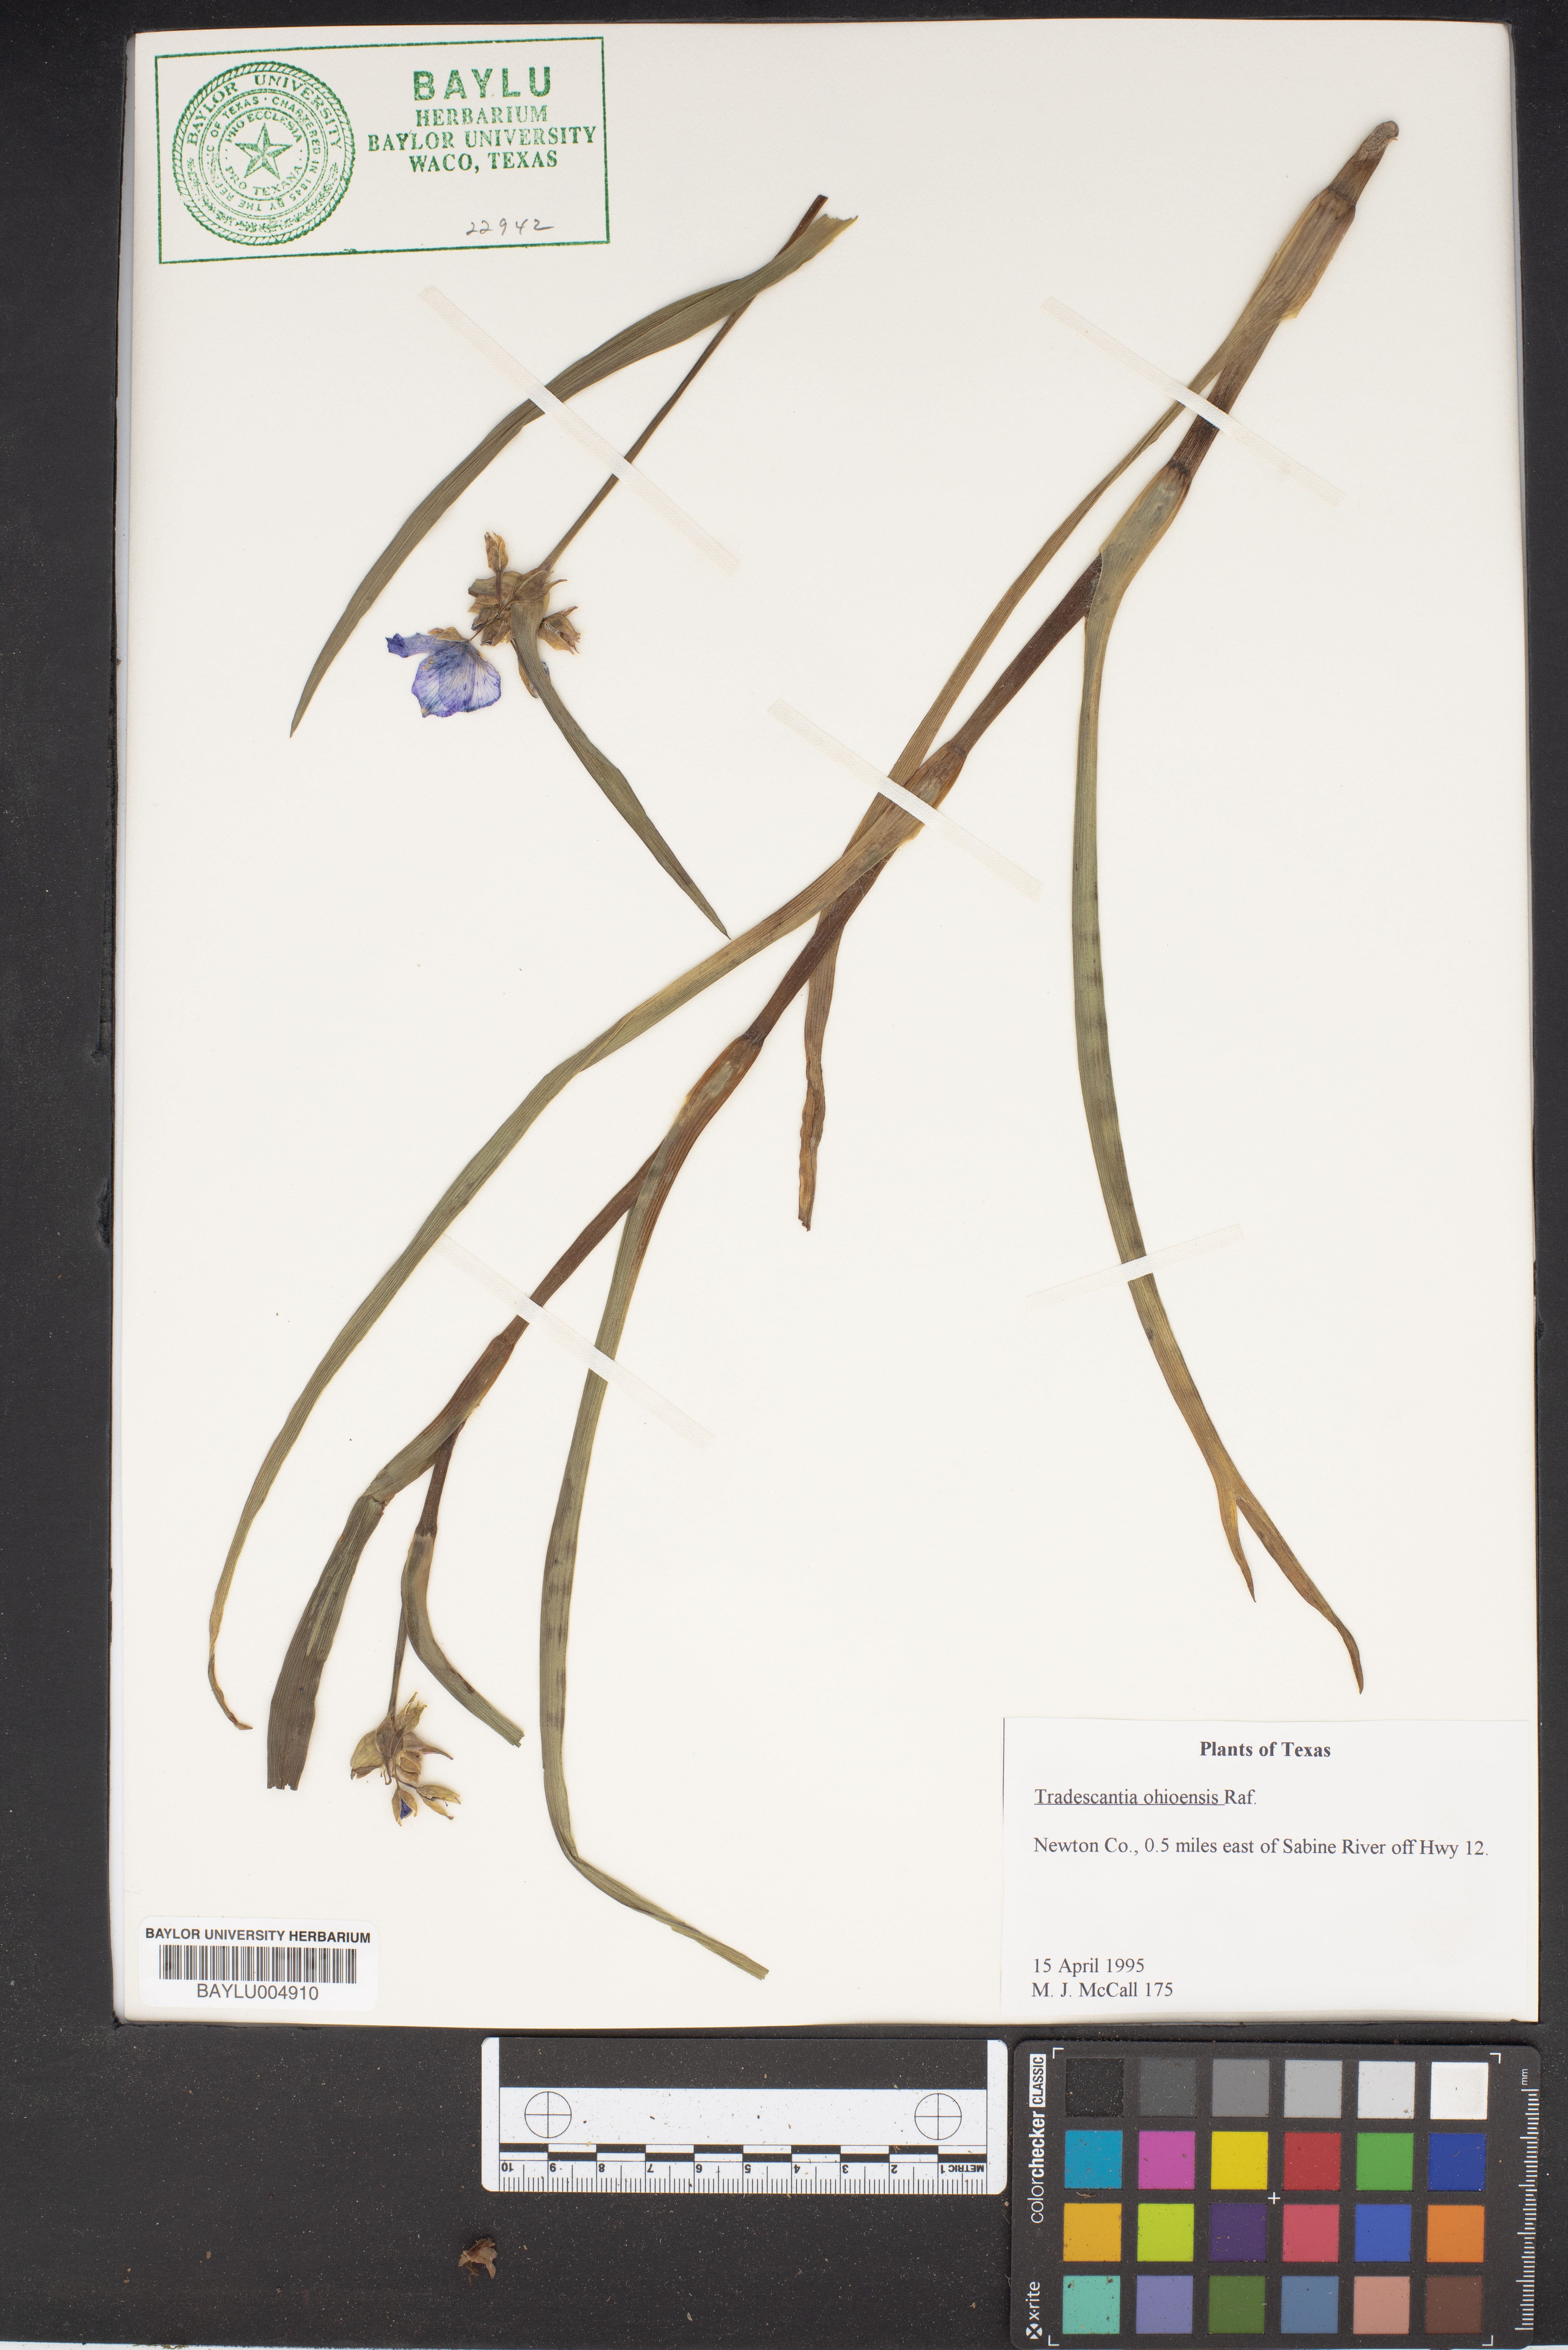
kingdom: Plantae
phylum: Tracheophyta
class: Liliopsida
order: Commelinales
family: Commelinaceae
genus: Tradescantia
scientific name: Tradescantia ohiensis
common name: Ohio spiderwort
